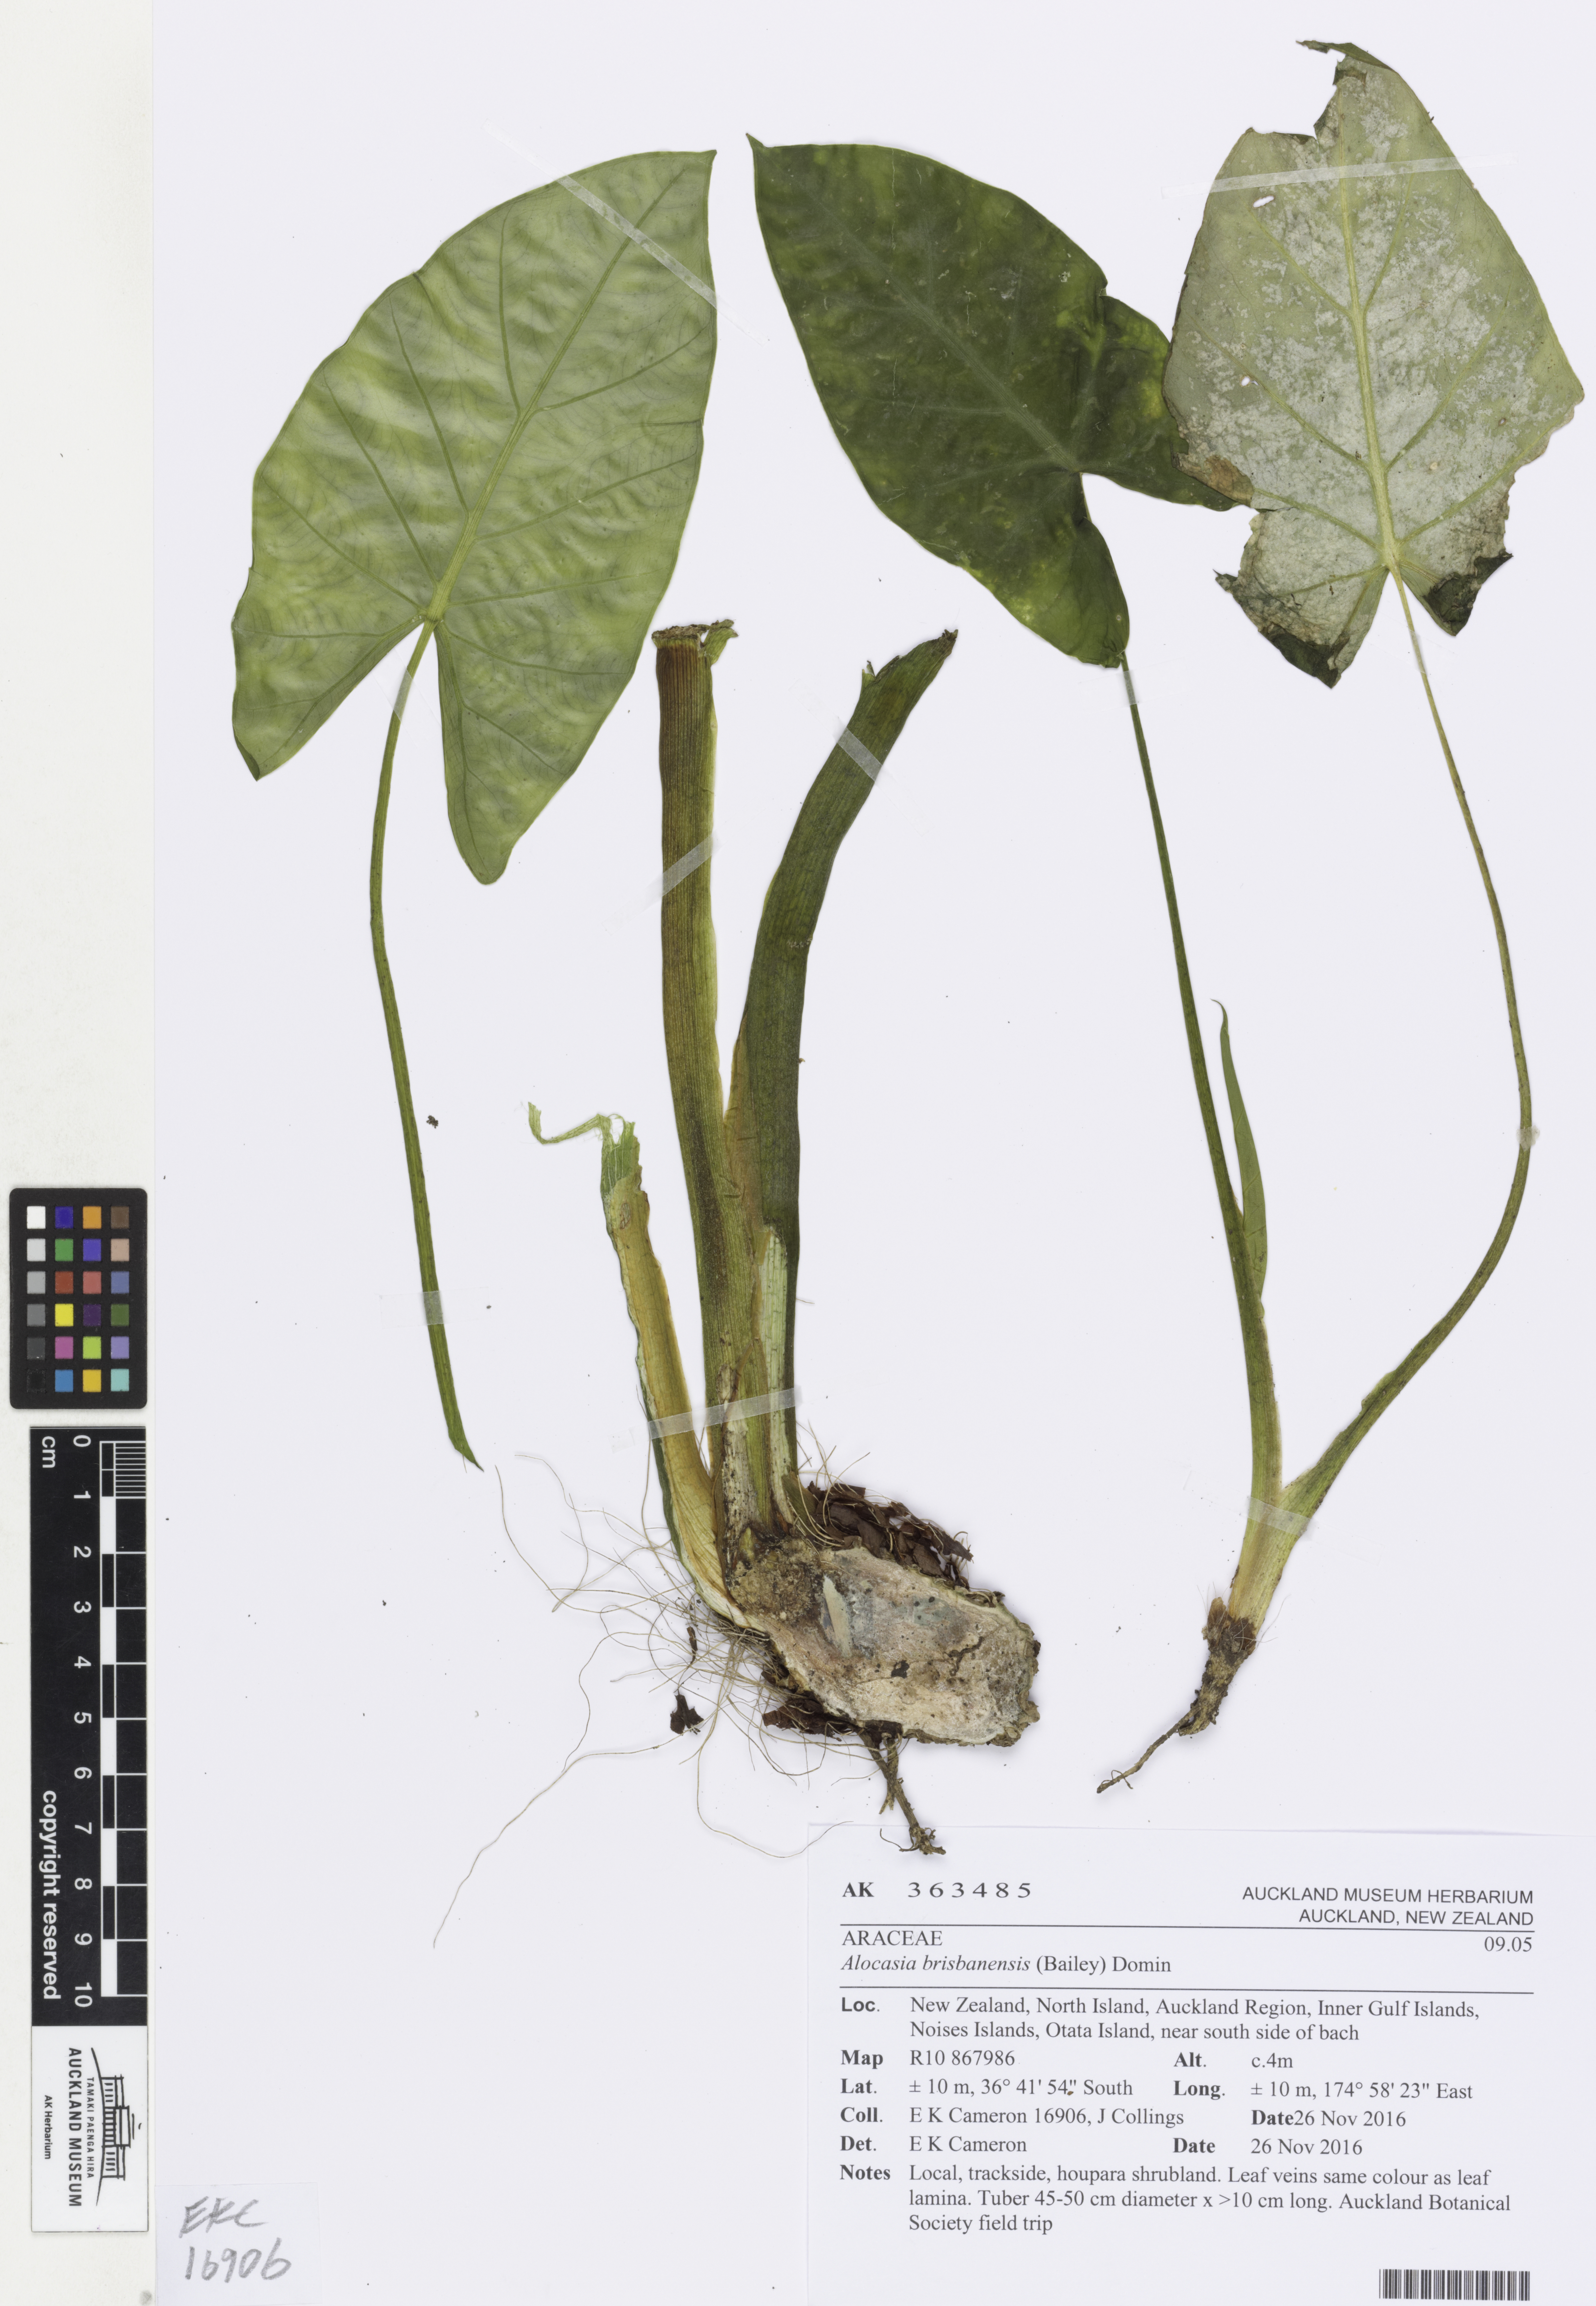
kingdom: Plantae
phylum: Tracheophyta
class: Liliopsida
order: Alismatales
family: Araceae
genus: Alocasia
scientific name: Alocasia brisbanensis
